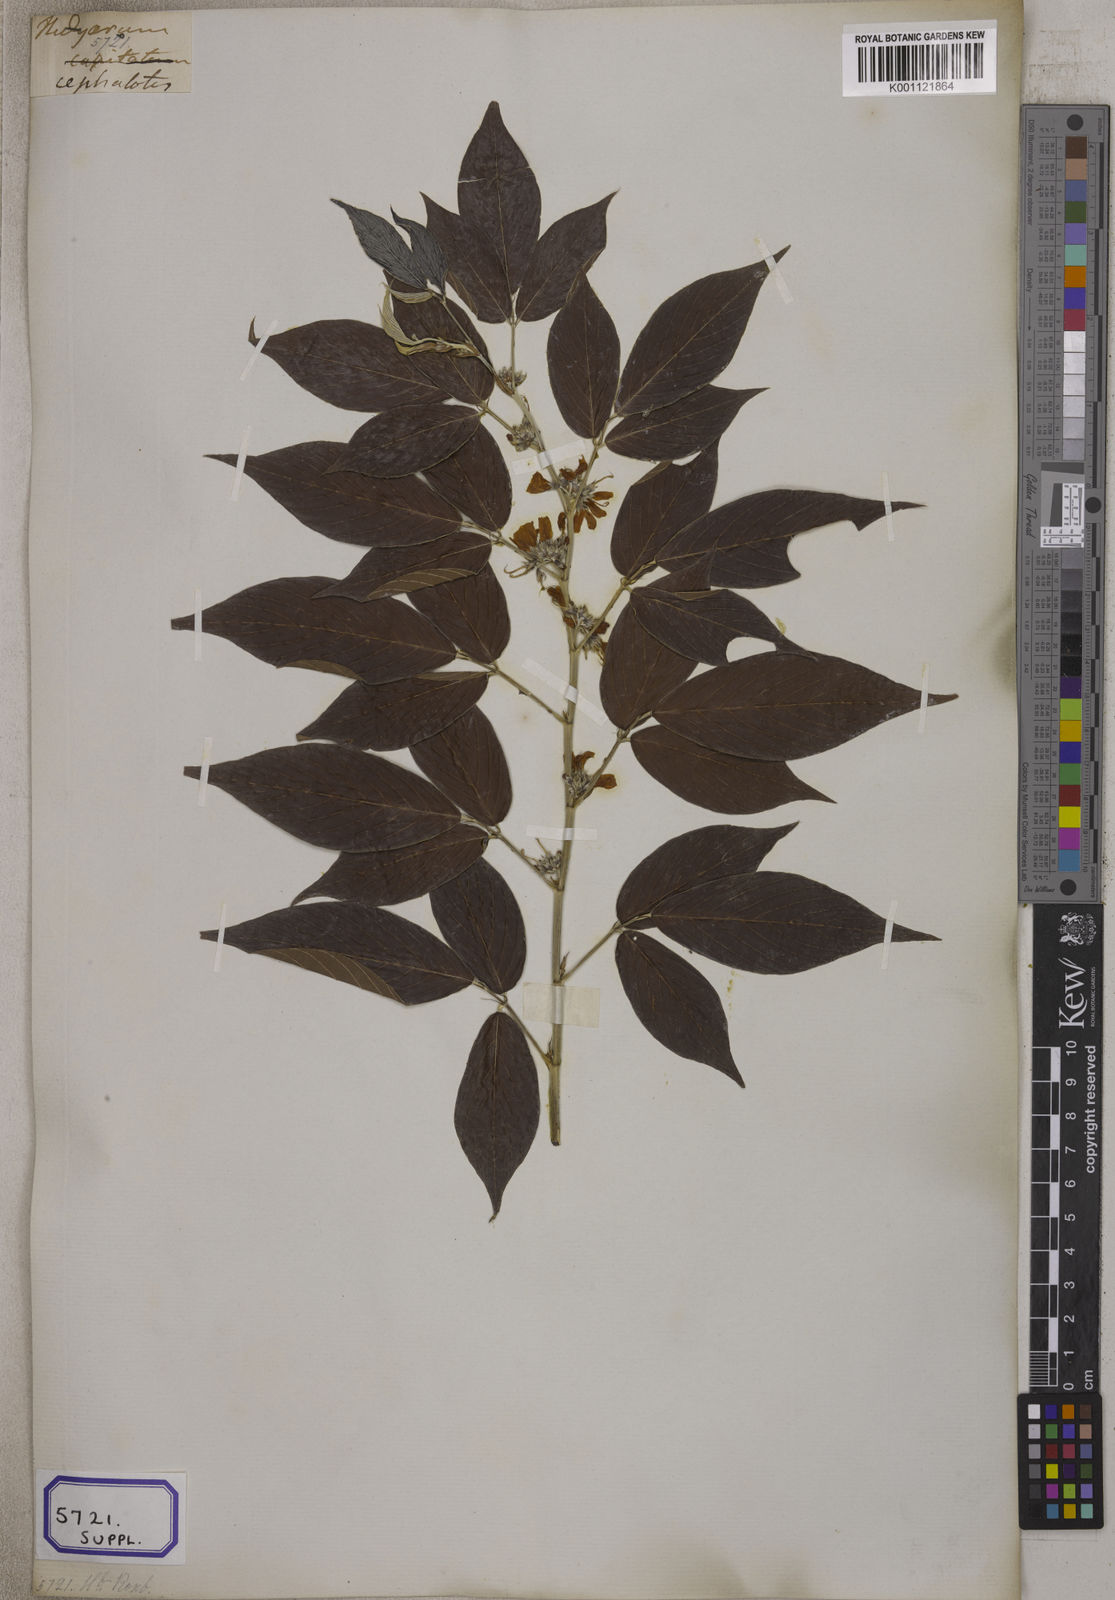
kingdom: Plantae
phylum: Tracheophyta
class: Magnoliopsida
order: Fabales
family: Fabaceae
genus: Desmodium
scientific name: Desmodium
